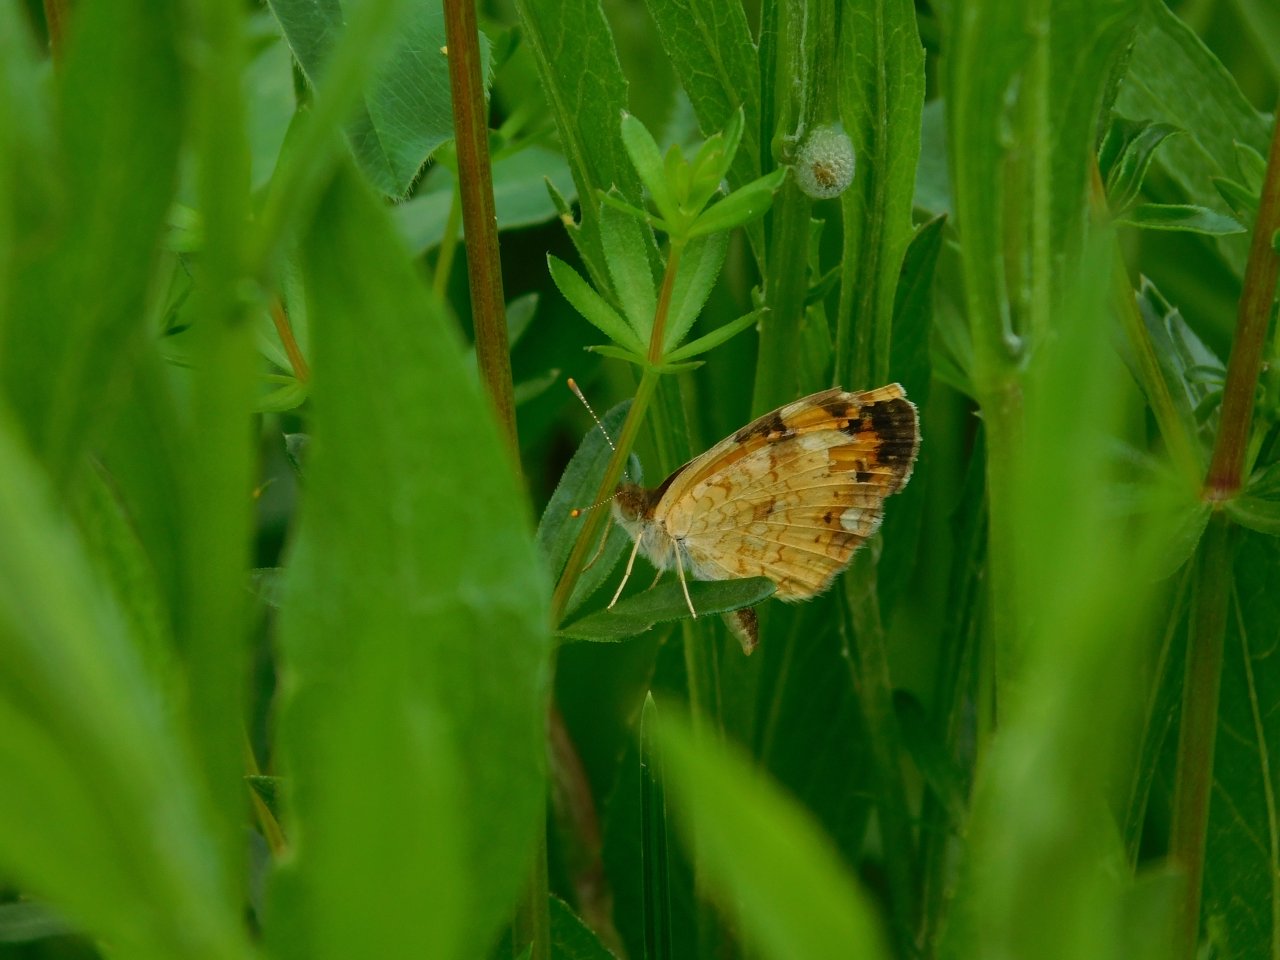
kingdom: Animalia
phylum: Arthropoda
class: Insecta
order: Lepidoptera
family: Nymphalidae
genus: Phyciodes
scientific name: Phyciodes tharos
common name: Northern Crescent
